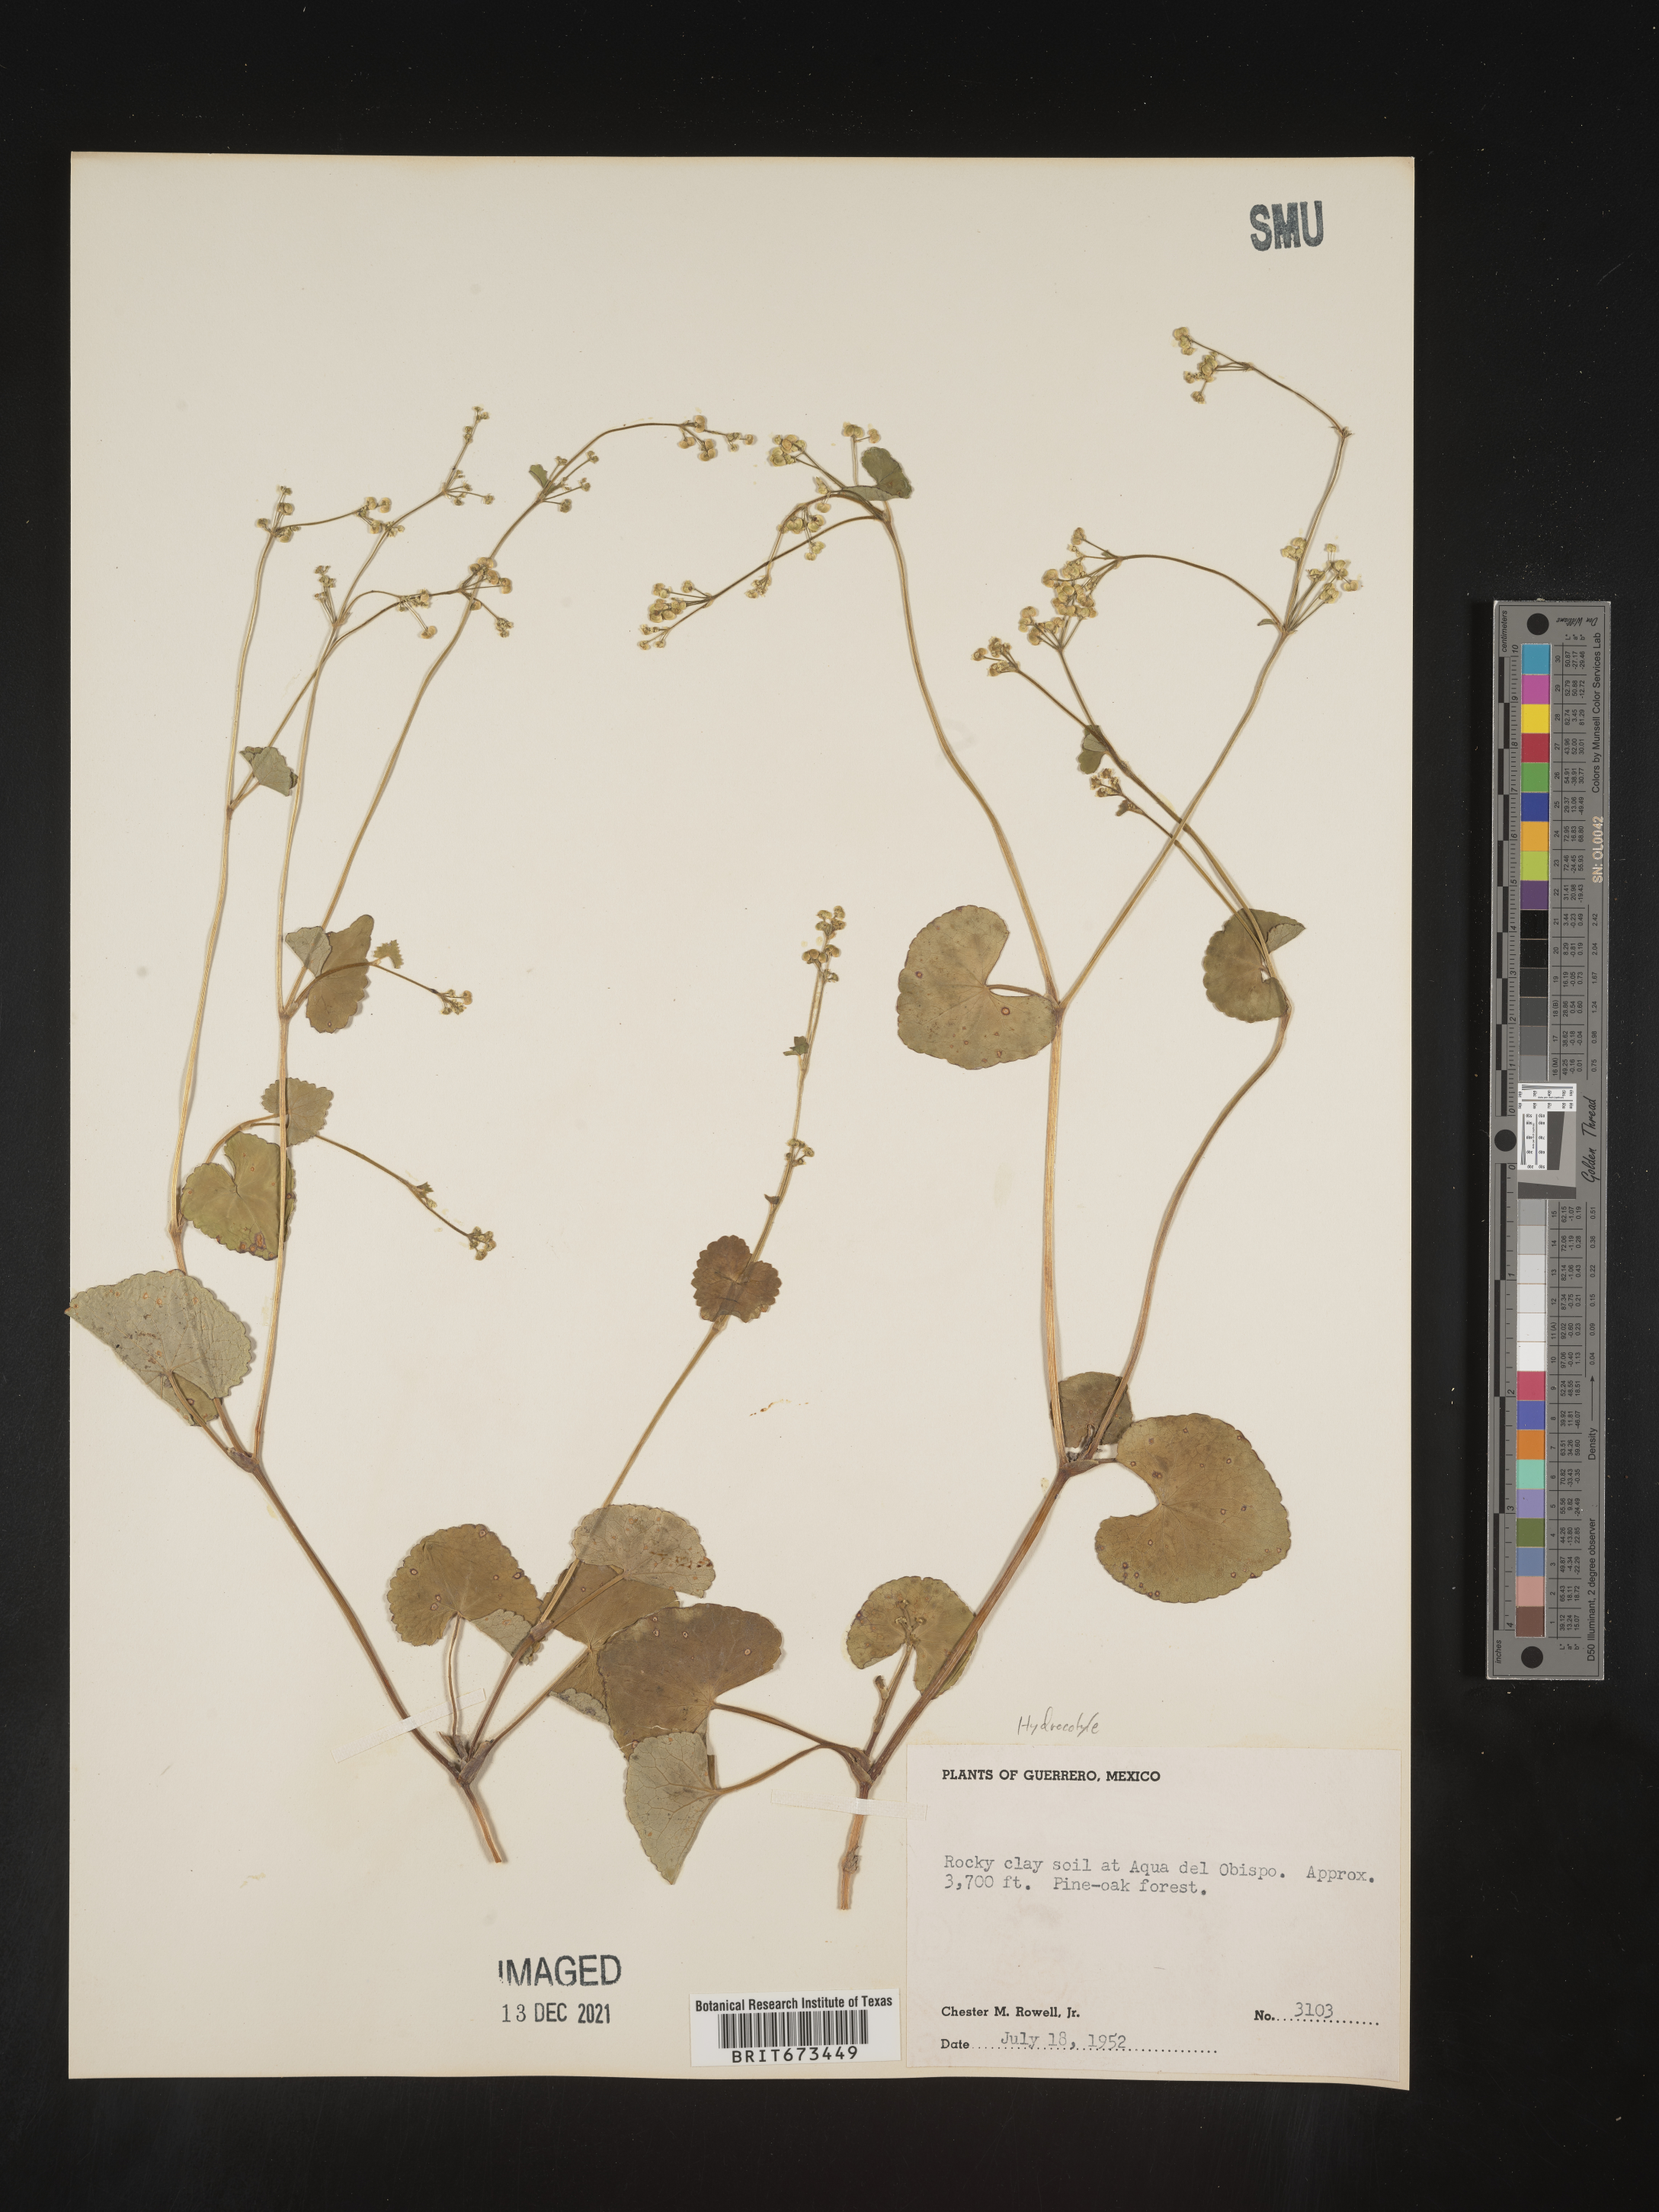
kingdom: Plantae
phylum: Tracheophyta
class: Magnoliopsida
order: Apiales
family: Apiaceae
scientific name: Apiaceae
